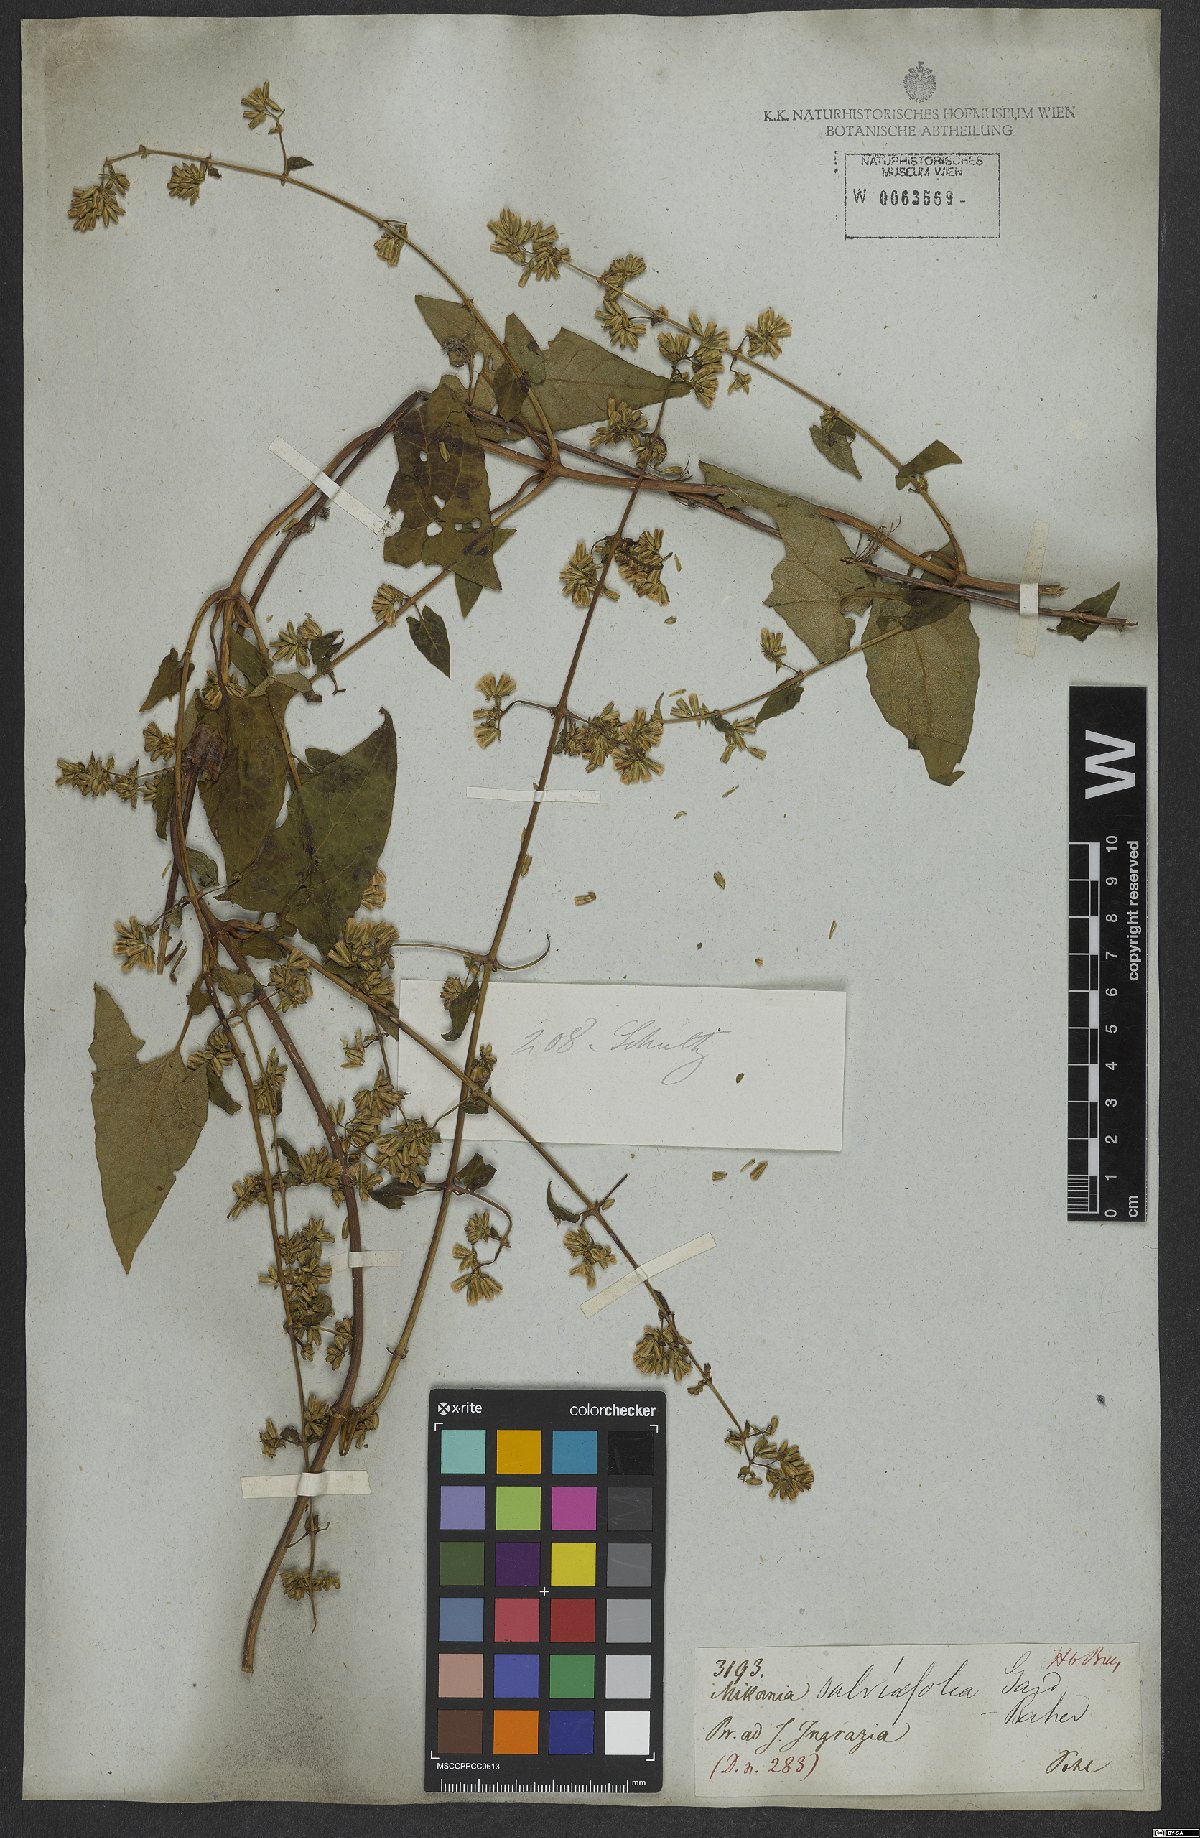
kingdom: Plantae
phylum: Tracheophyta
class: Magnoliopsida
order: Asterales
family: Asteraceae
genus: Mikania
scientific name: Mikania salviifolia
